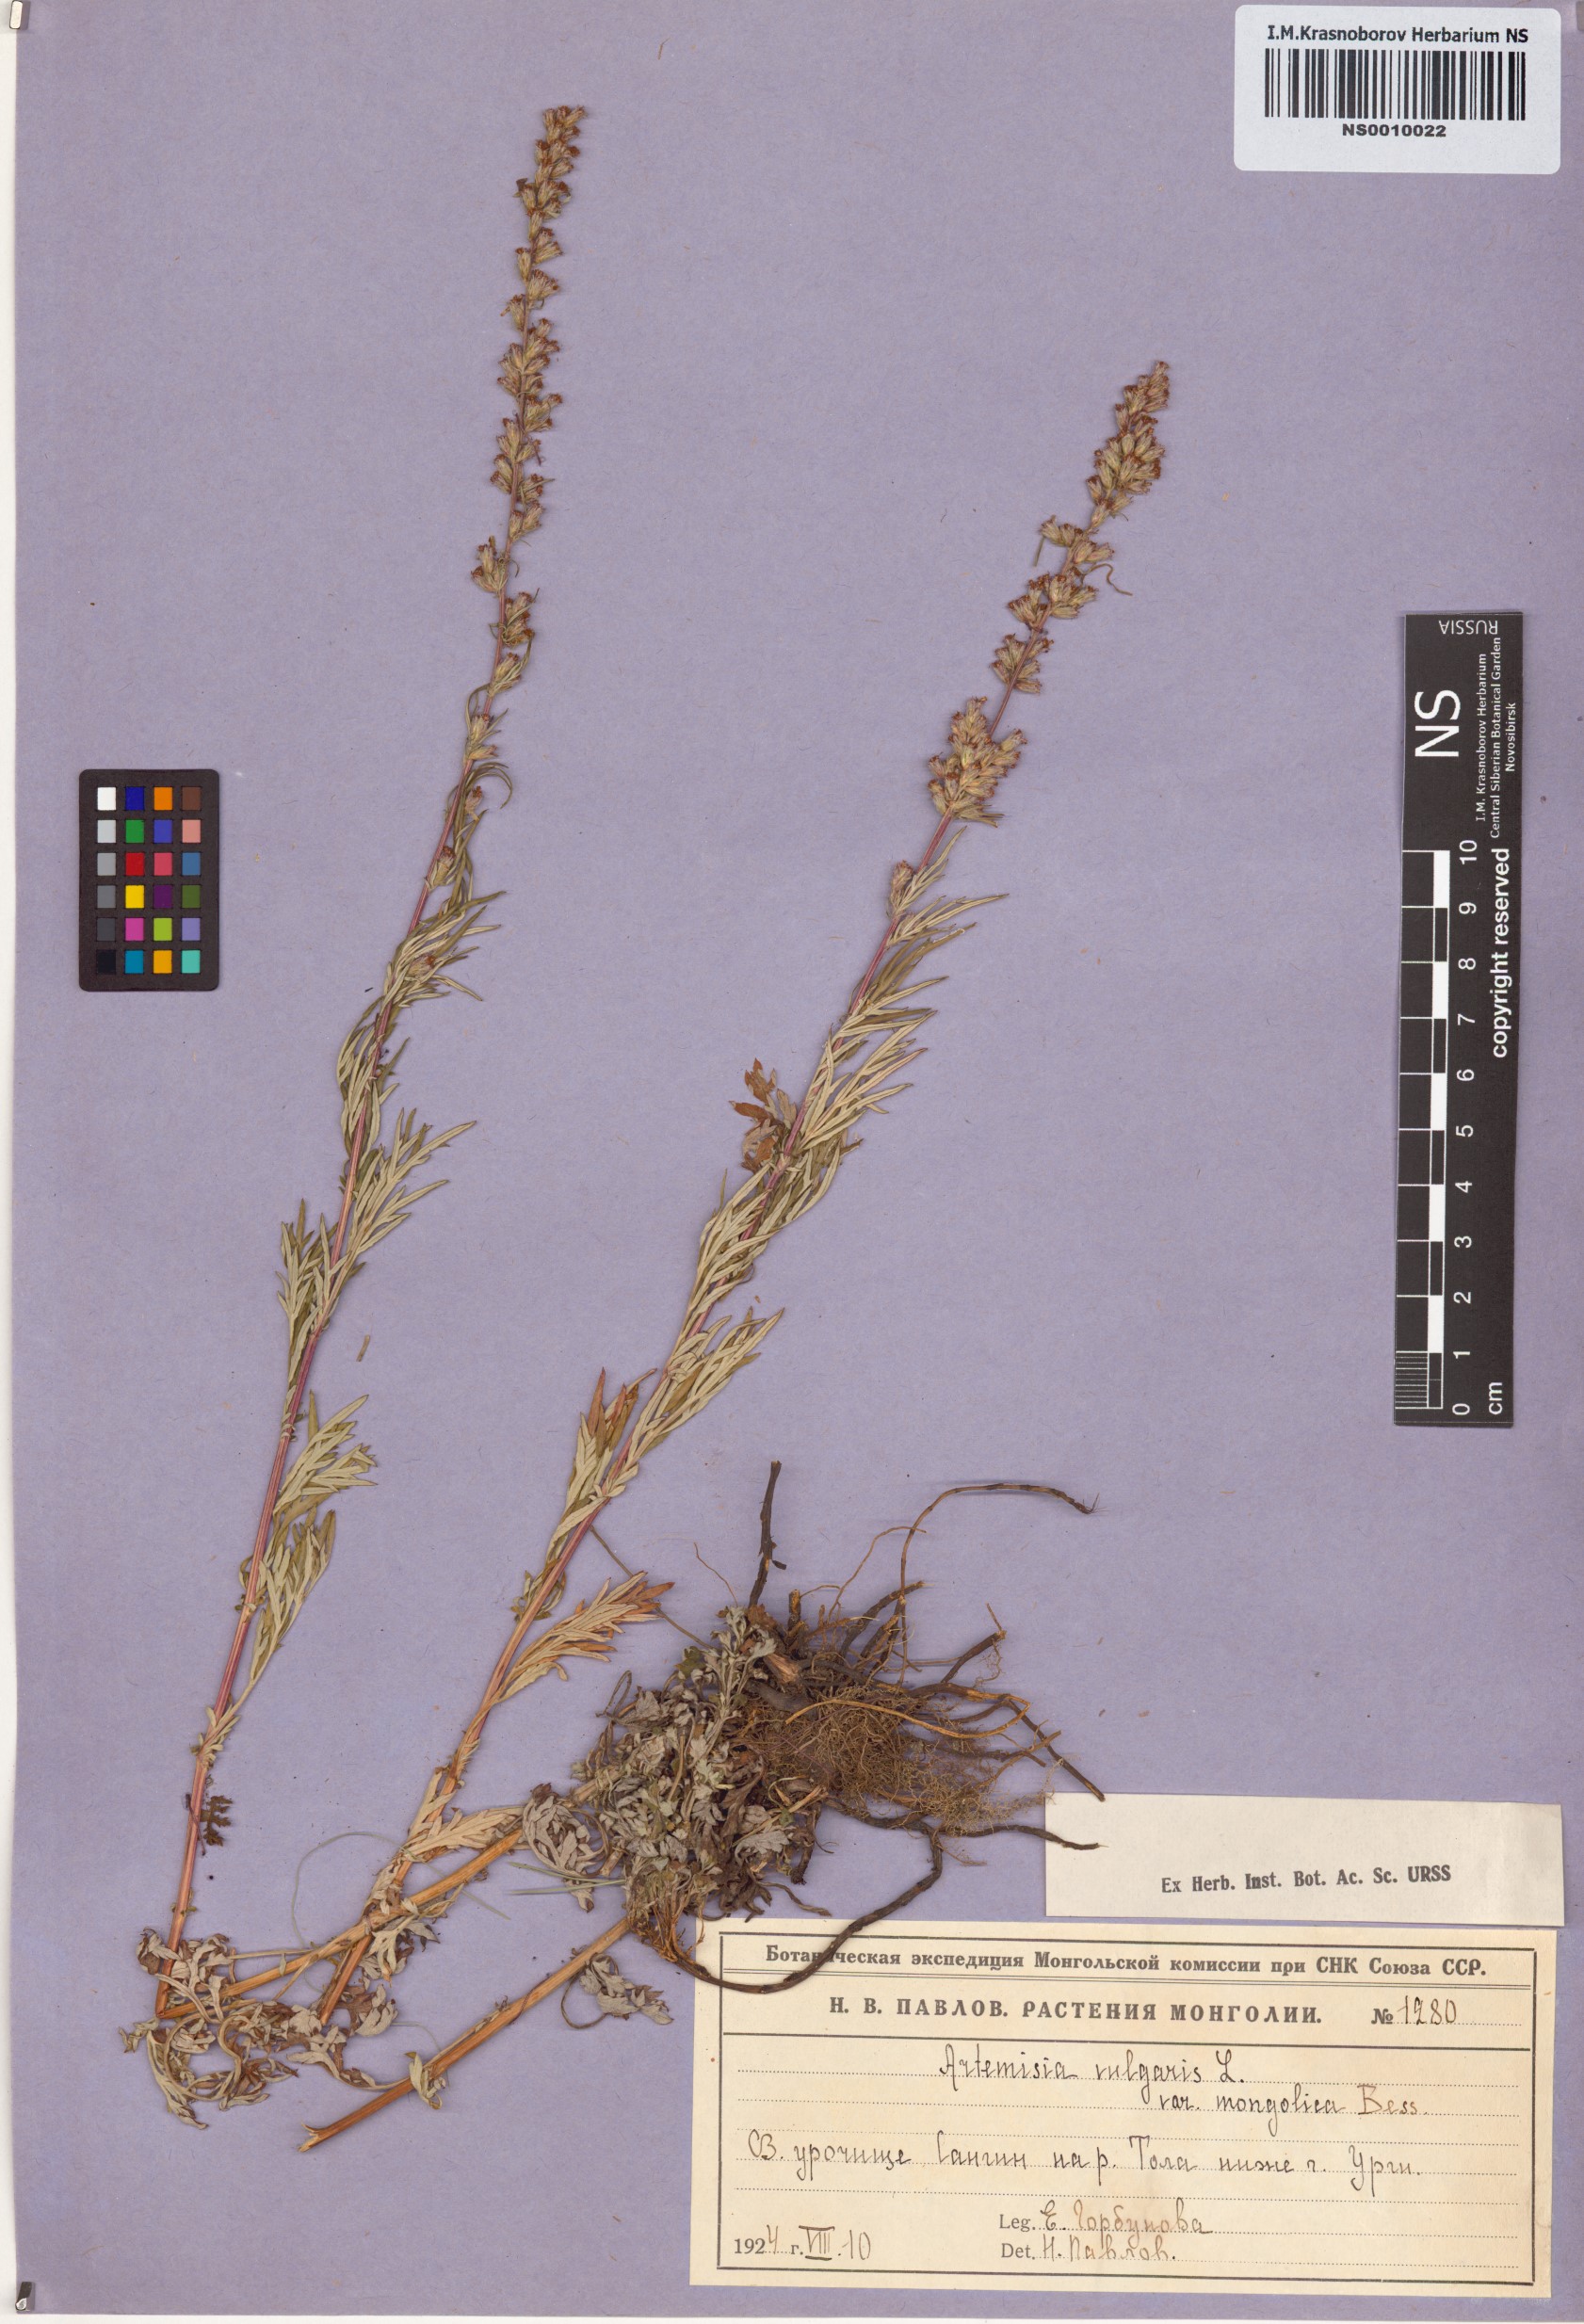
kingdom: Plantae
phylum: Tracheophyta
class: Magnoliopsida
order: Asterales
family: Asteraceae
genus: Artemisia
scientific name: Artemisia mongolica
